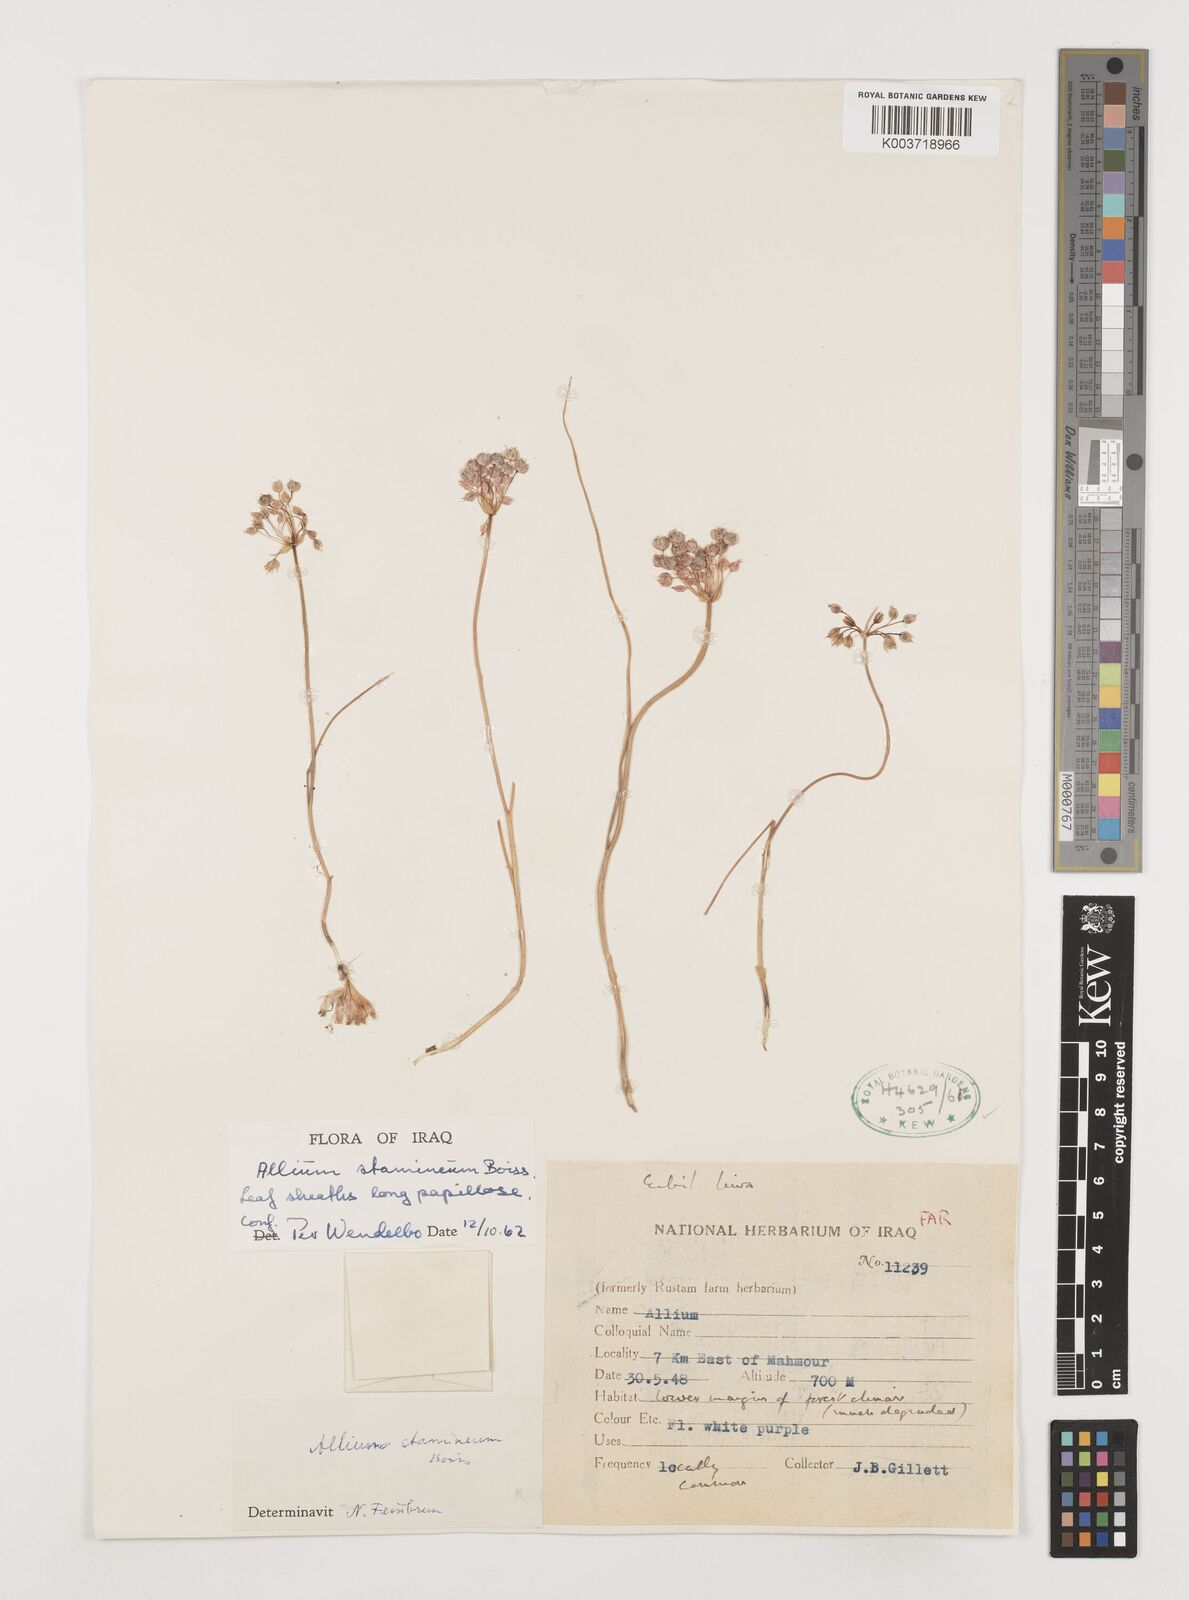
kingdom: Plantae
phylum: Tracheophyta
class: Liliopsida
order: Asparagales
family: Amaryllidaceae
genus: Allium
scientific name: Allium stamineum
